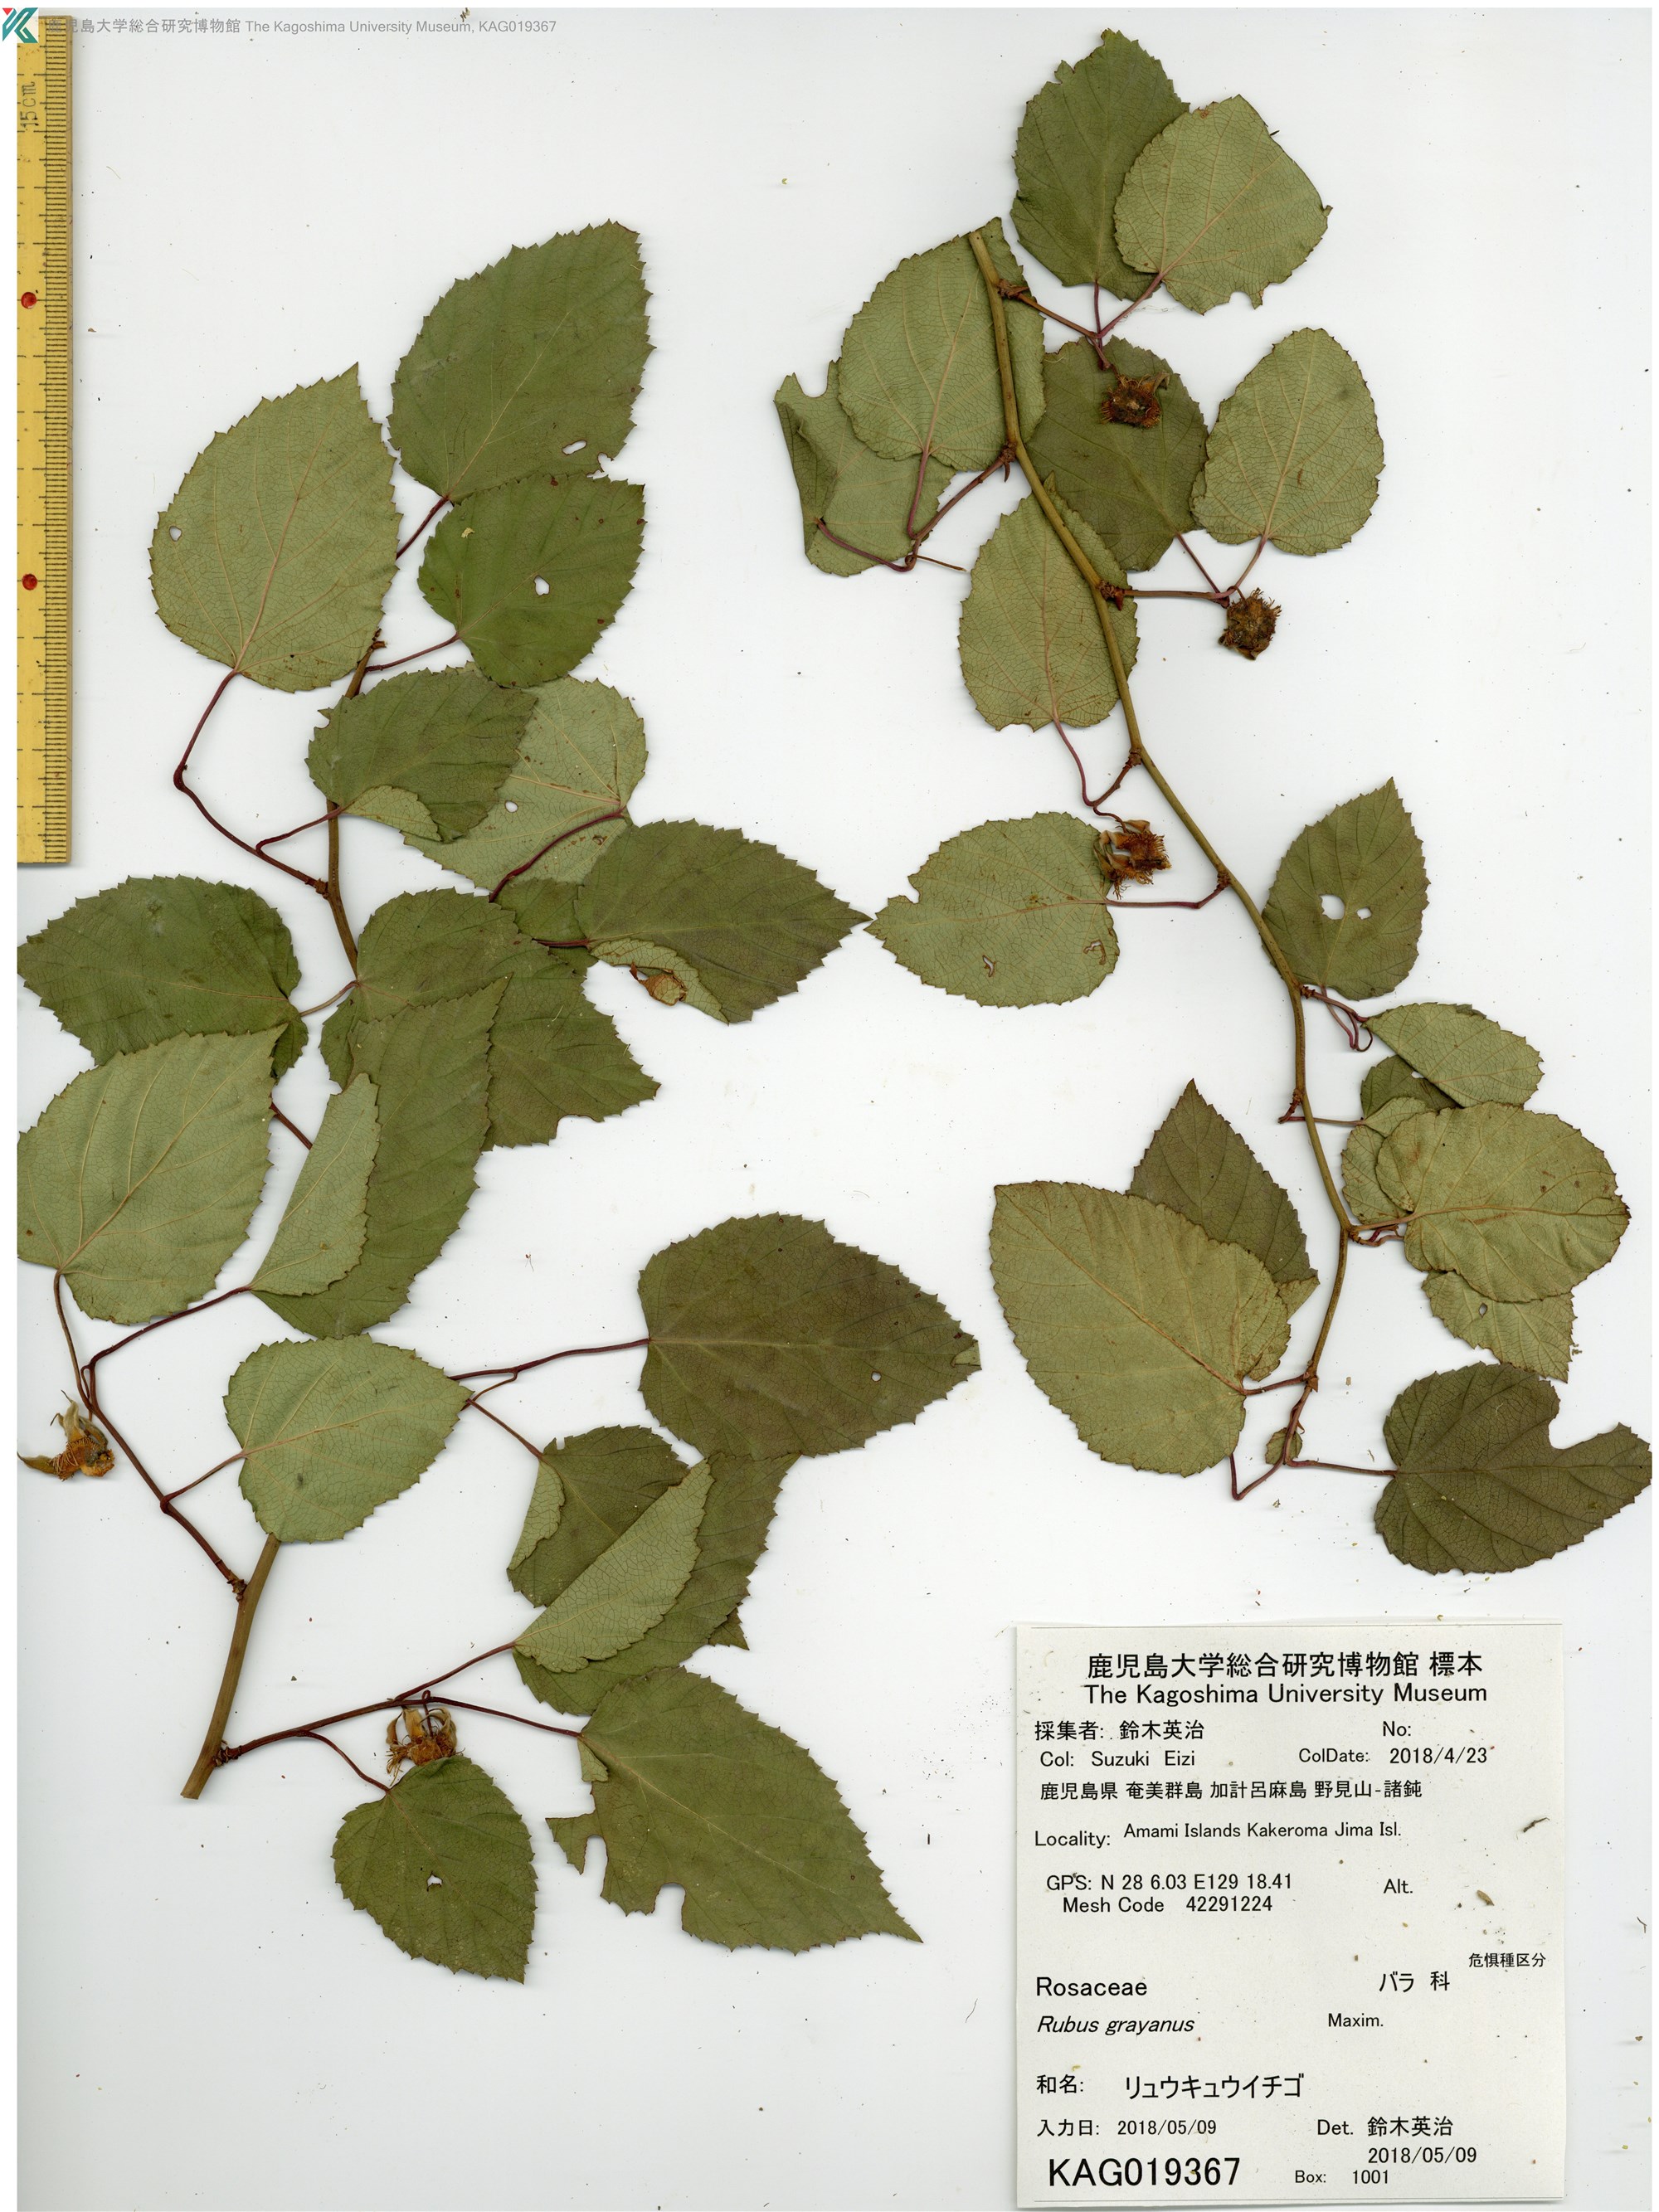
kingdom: Plantae
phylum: Tracheophyta
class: Magnoliopsida
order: Rosales
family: Rosaceae
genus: Rubus
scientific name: Rubus grayanus
